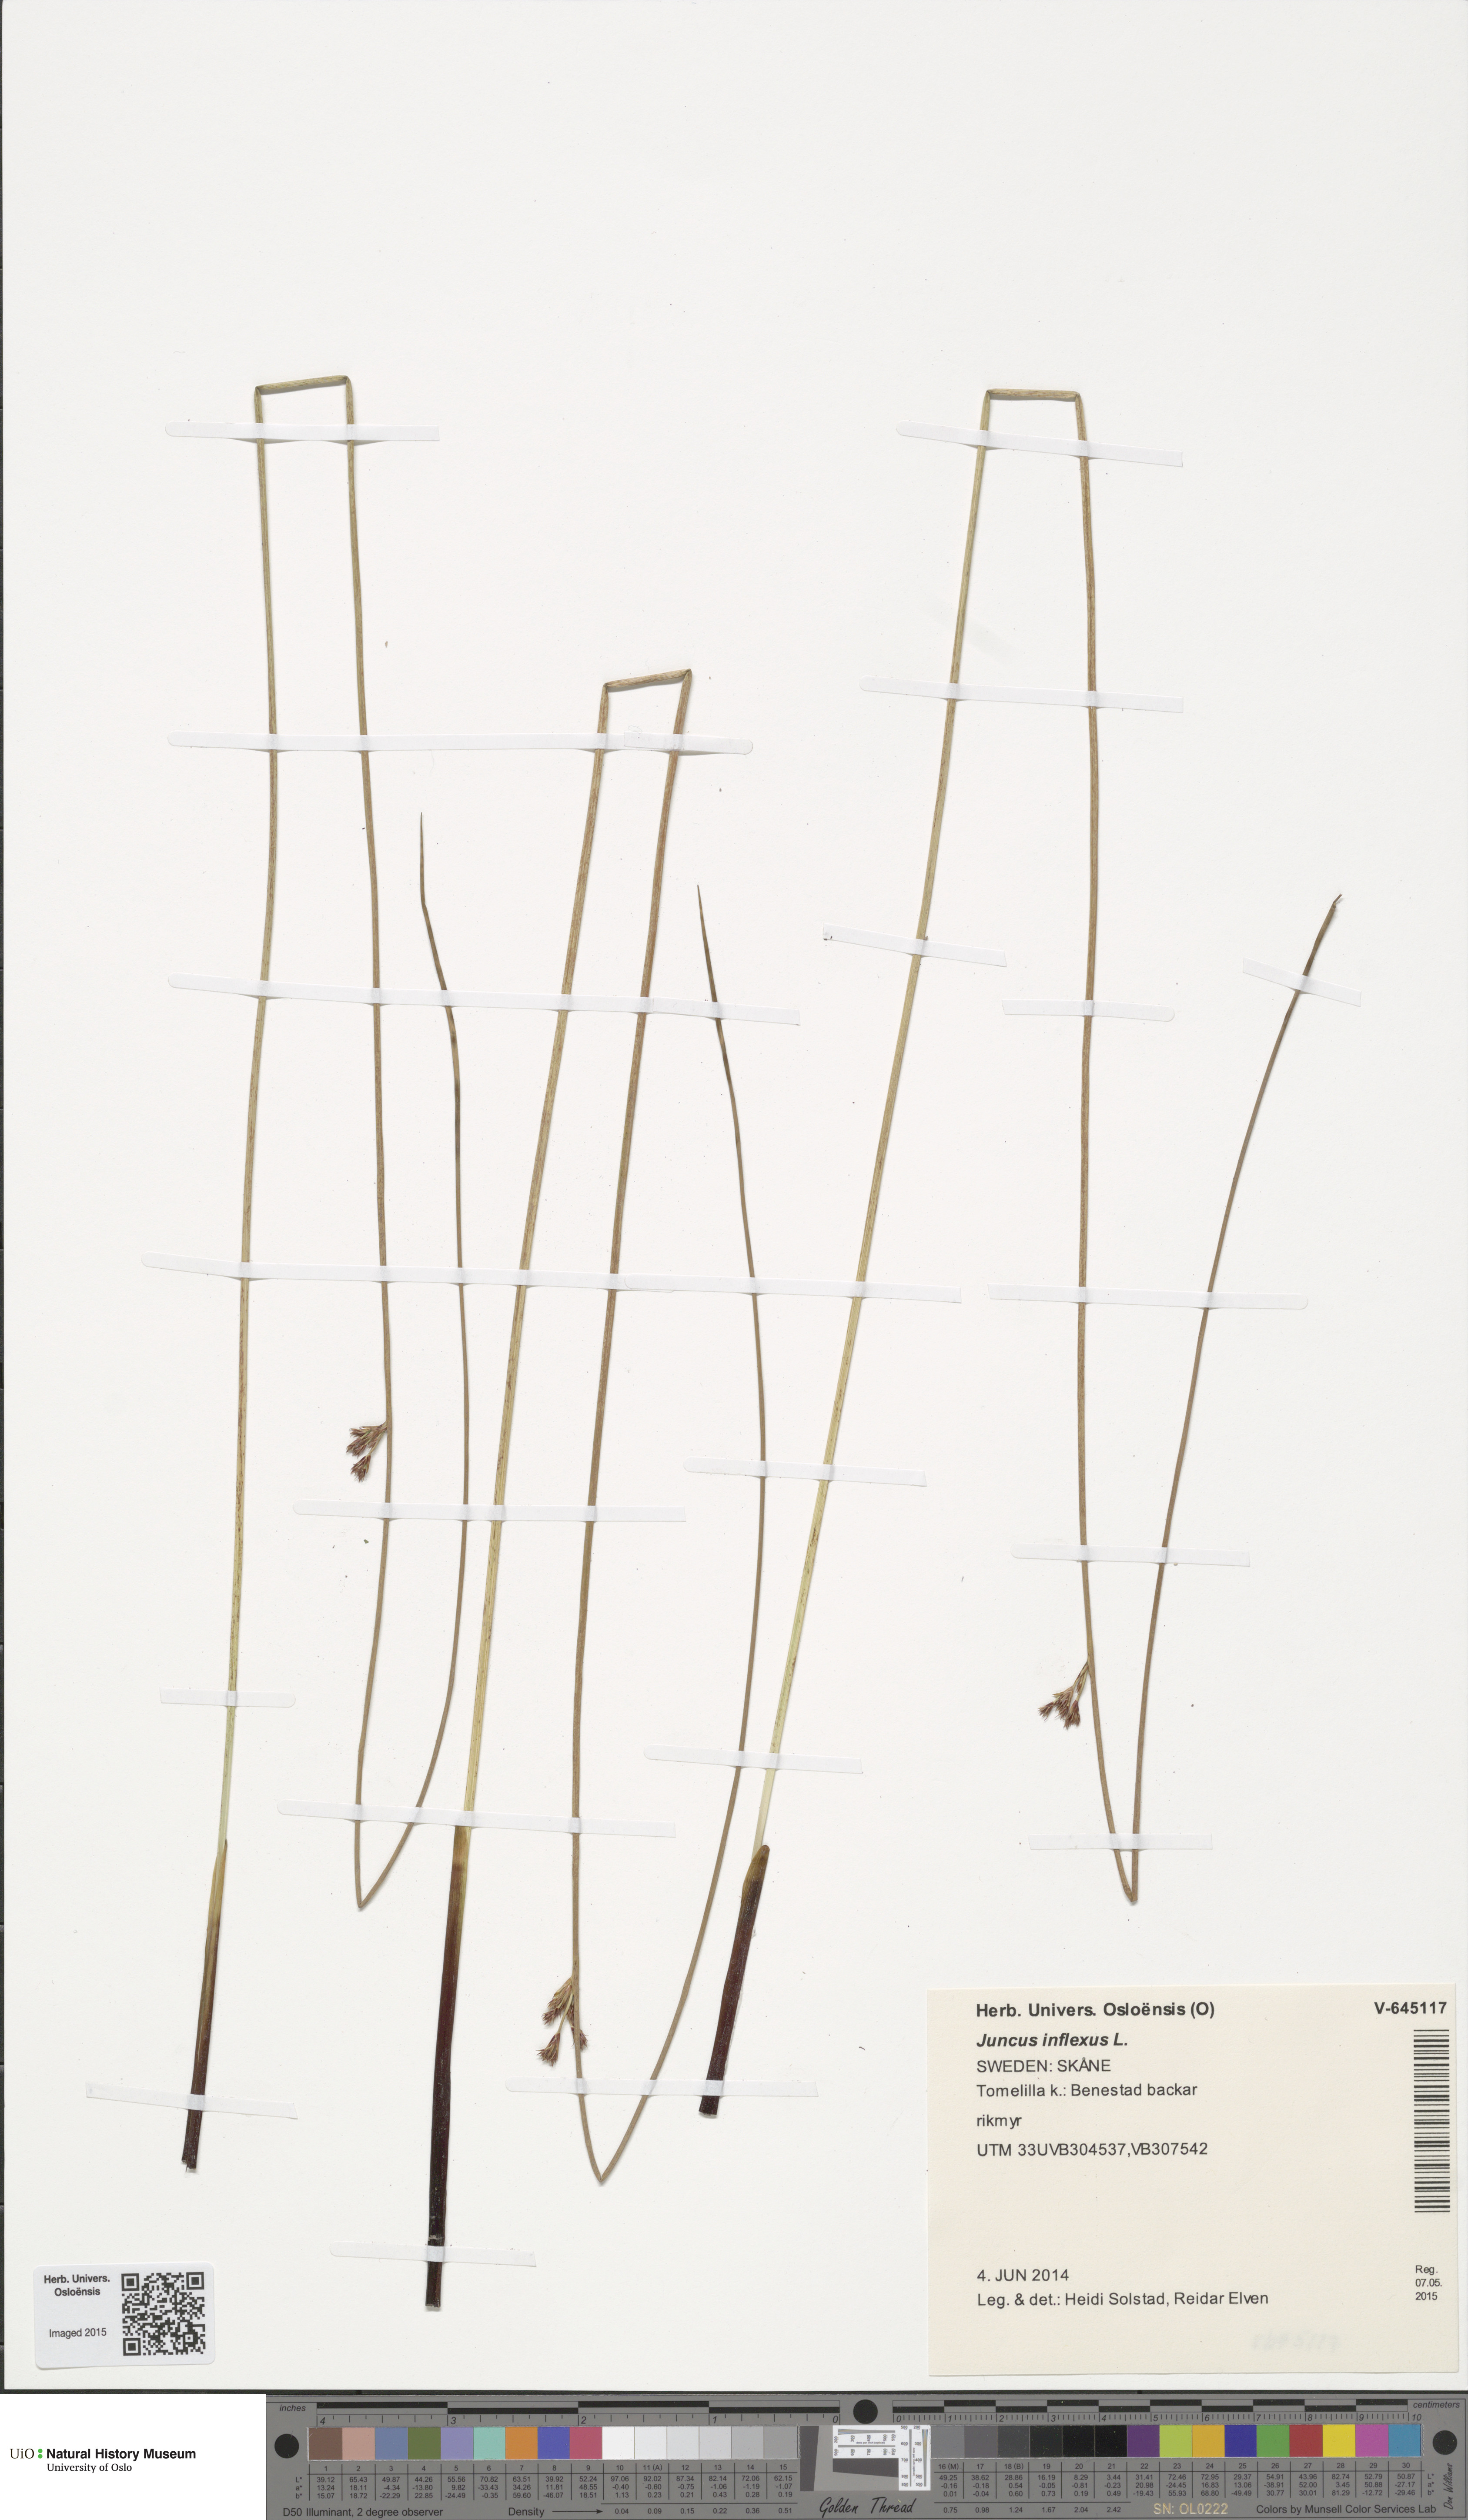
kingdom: Plantae
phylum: Tracheophyta
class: Liliopsida
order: Poales
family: Juncaceae
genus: Juncus
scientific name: Juncus inflexus
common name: Hard rush
